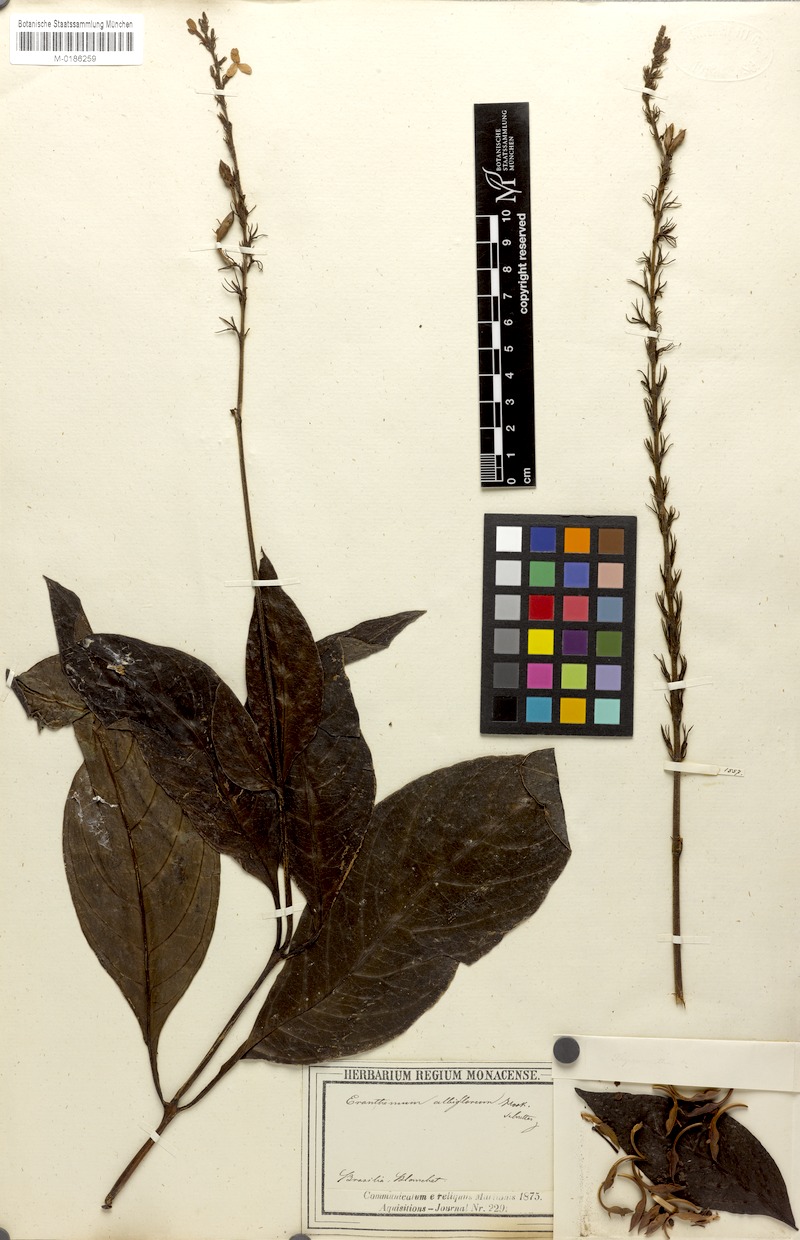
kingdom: Plantae
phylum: Tracheophyta
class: Magnoliopsida
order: Lamiales
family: Acanthaceae
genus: Pseuderanthemum
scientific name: Pseuderanthemum albiflorum
